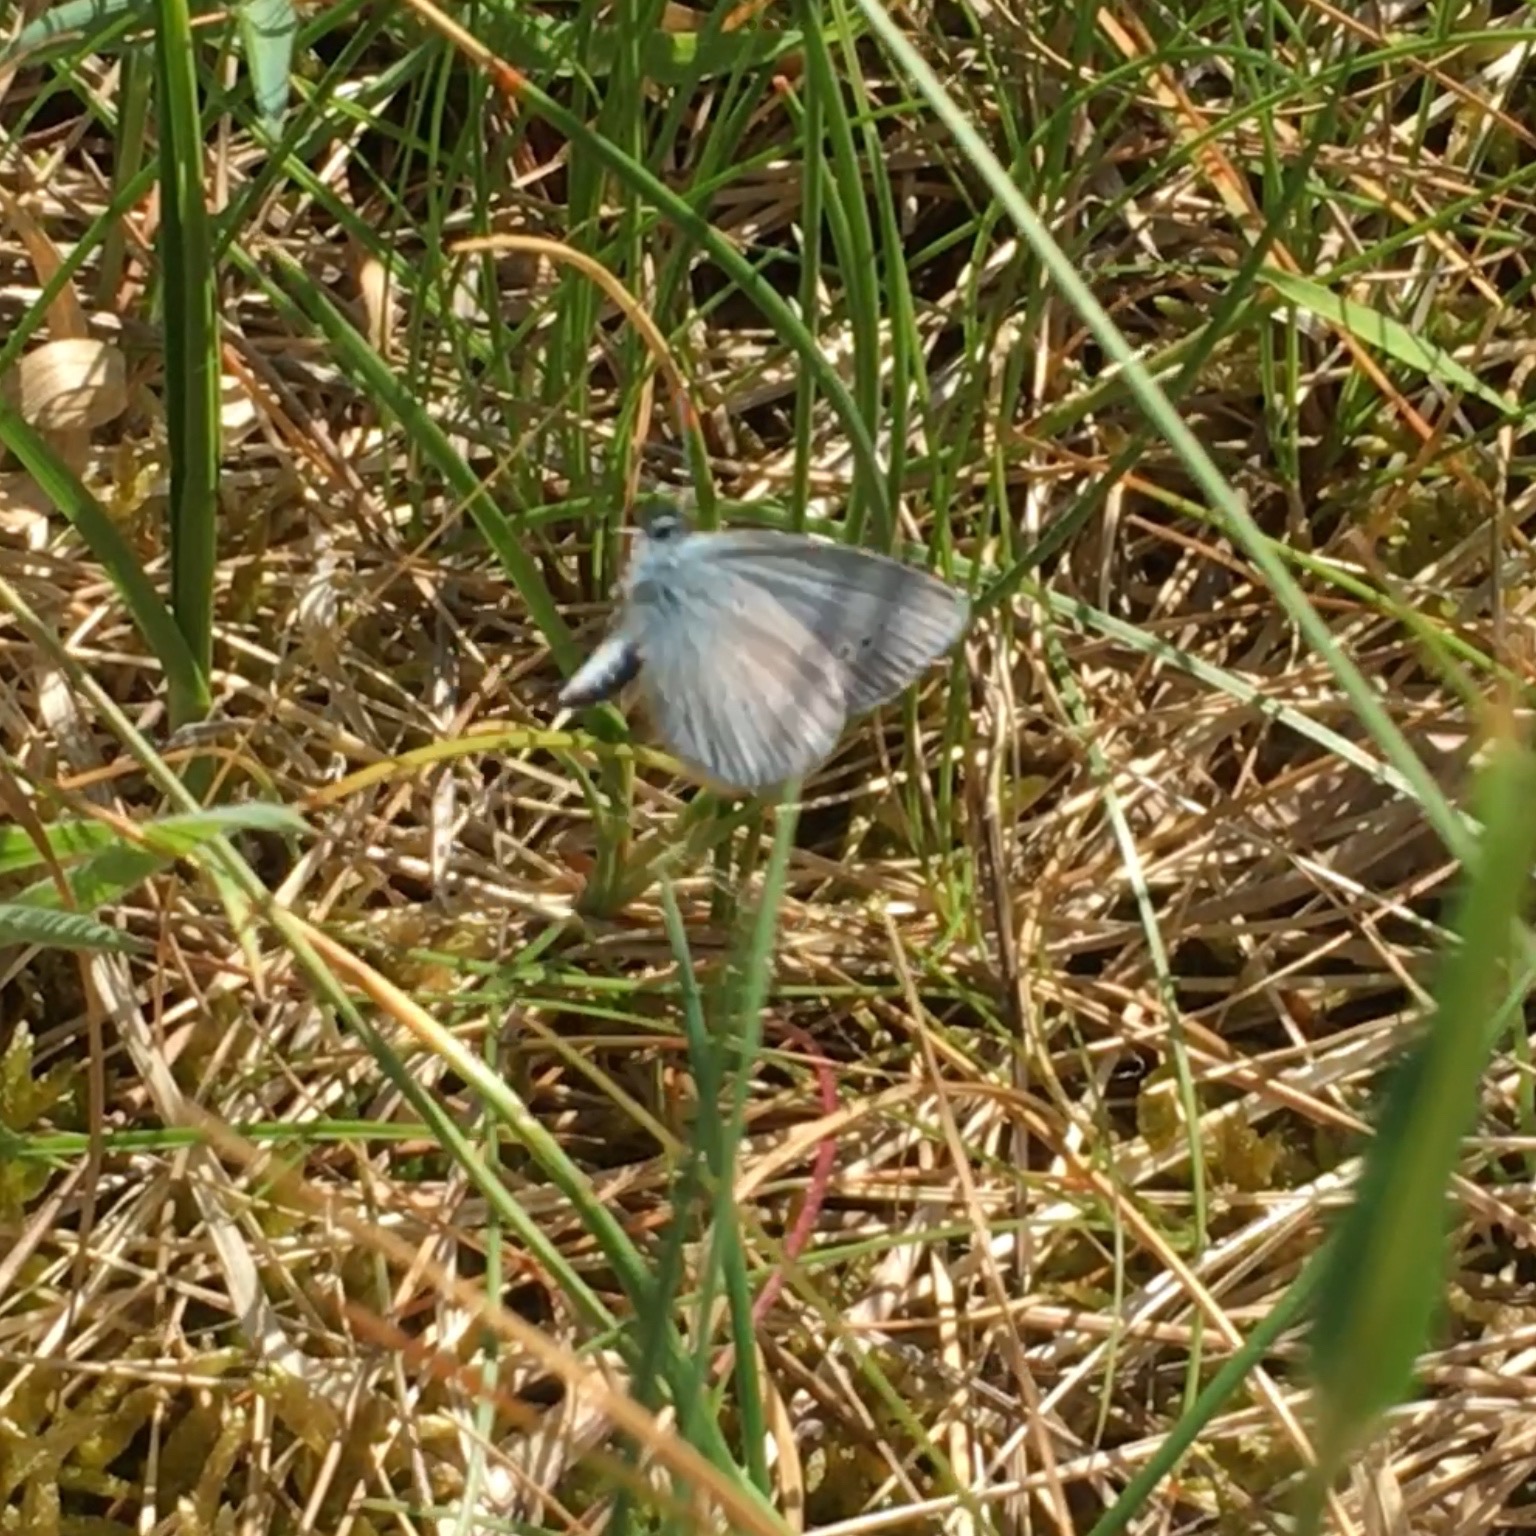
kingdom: Animalia
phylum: Arthropoda
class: Insecta
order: Lepidoptera
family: Lycaenidae
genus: Cupido
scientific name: Cupido minimus
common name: Dværgblåfugl
